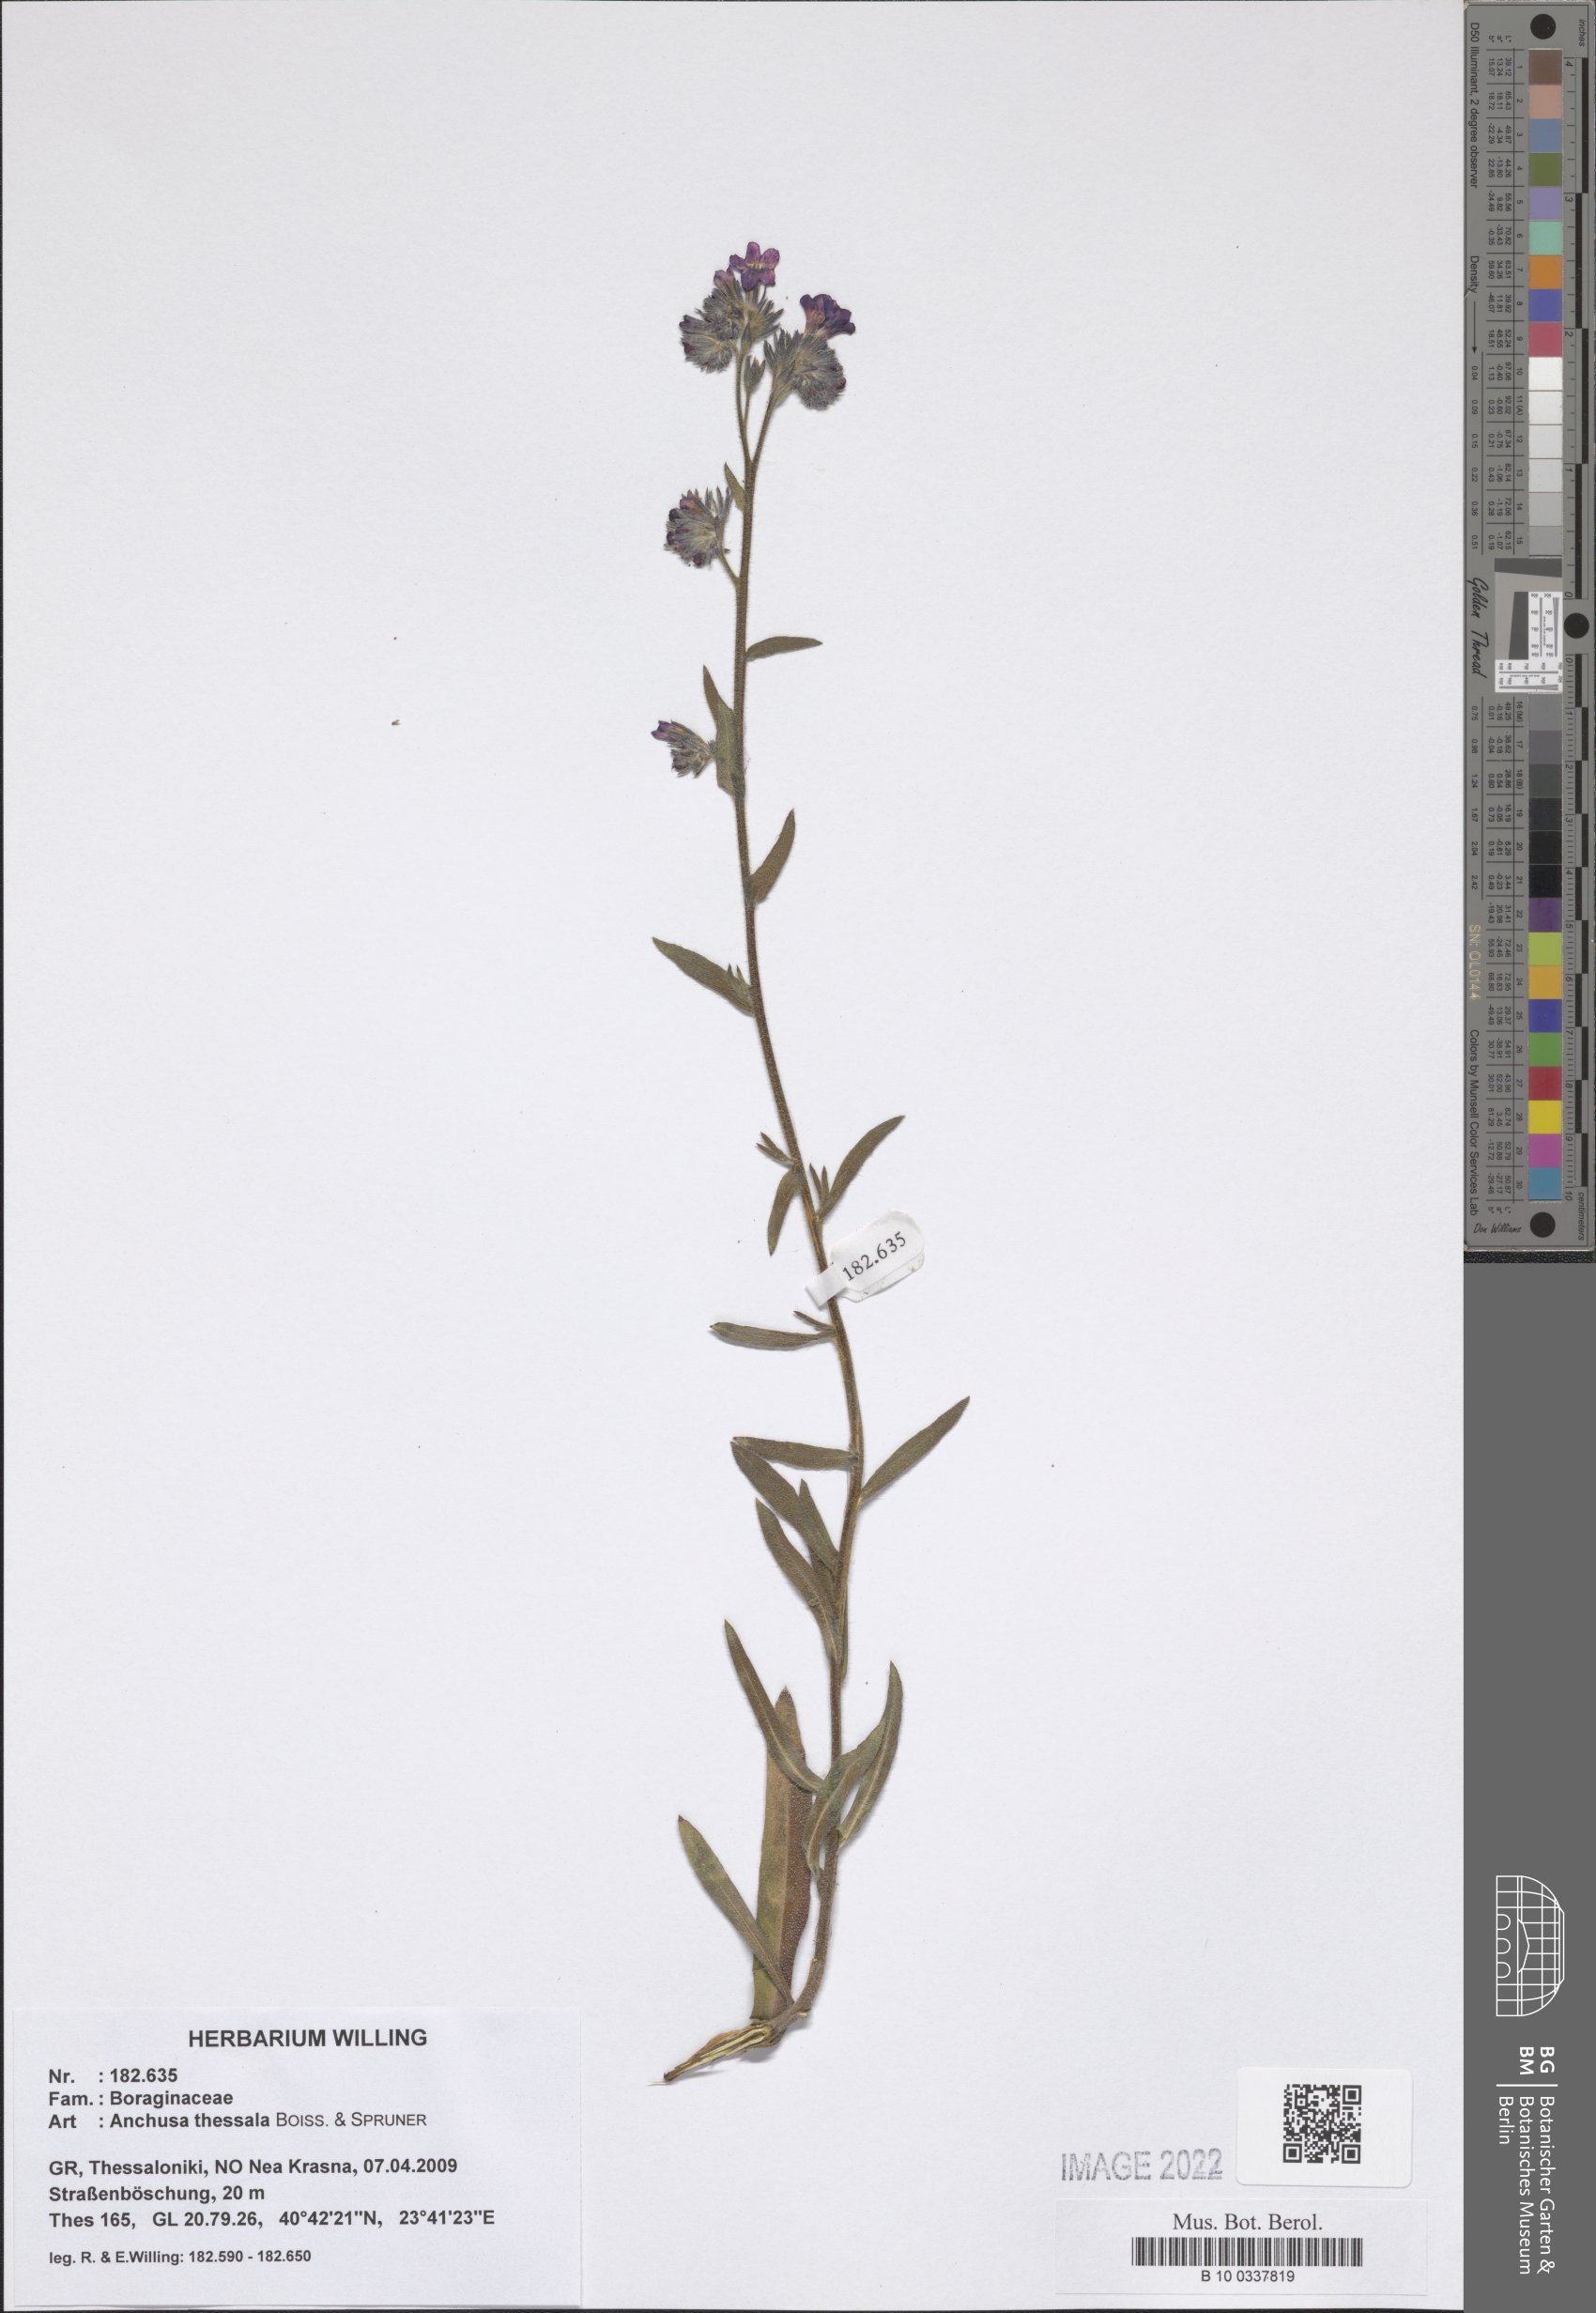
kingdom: Plantae
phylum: Tracheophyta
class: Magnoliopsida
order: Boraginales
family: Boraginaceae
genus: Anchusa
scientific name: Anchusa thessala
